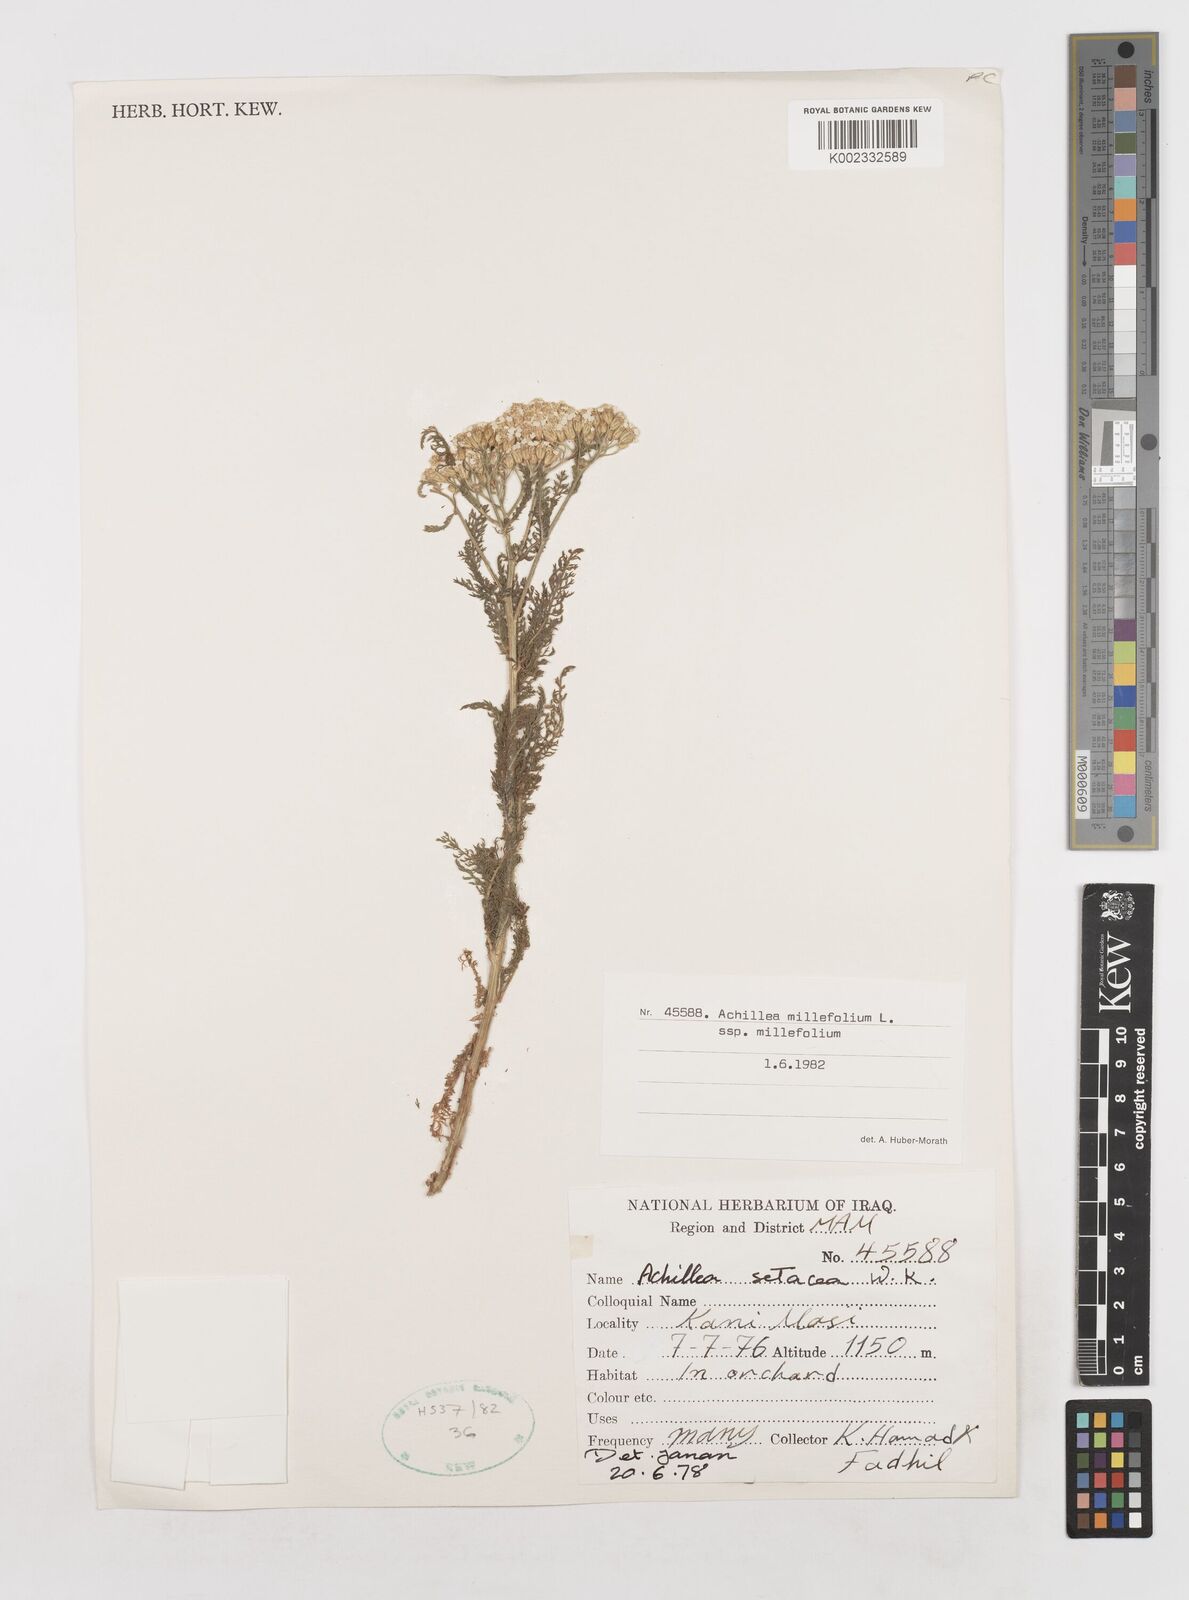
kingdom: Plantae
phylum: Tracheophyta
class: Magnoliopsida
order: Asterales
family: Asteraceae
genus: Achillea
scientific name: Achillea millefolium
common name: Yarrow
